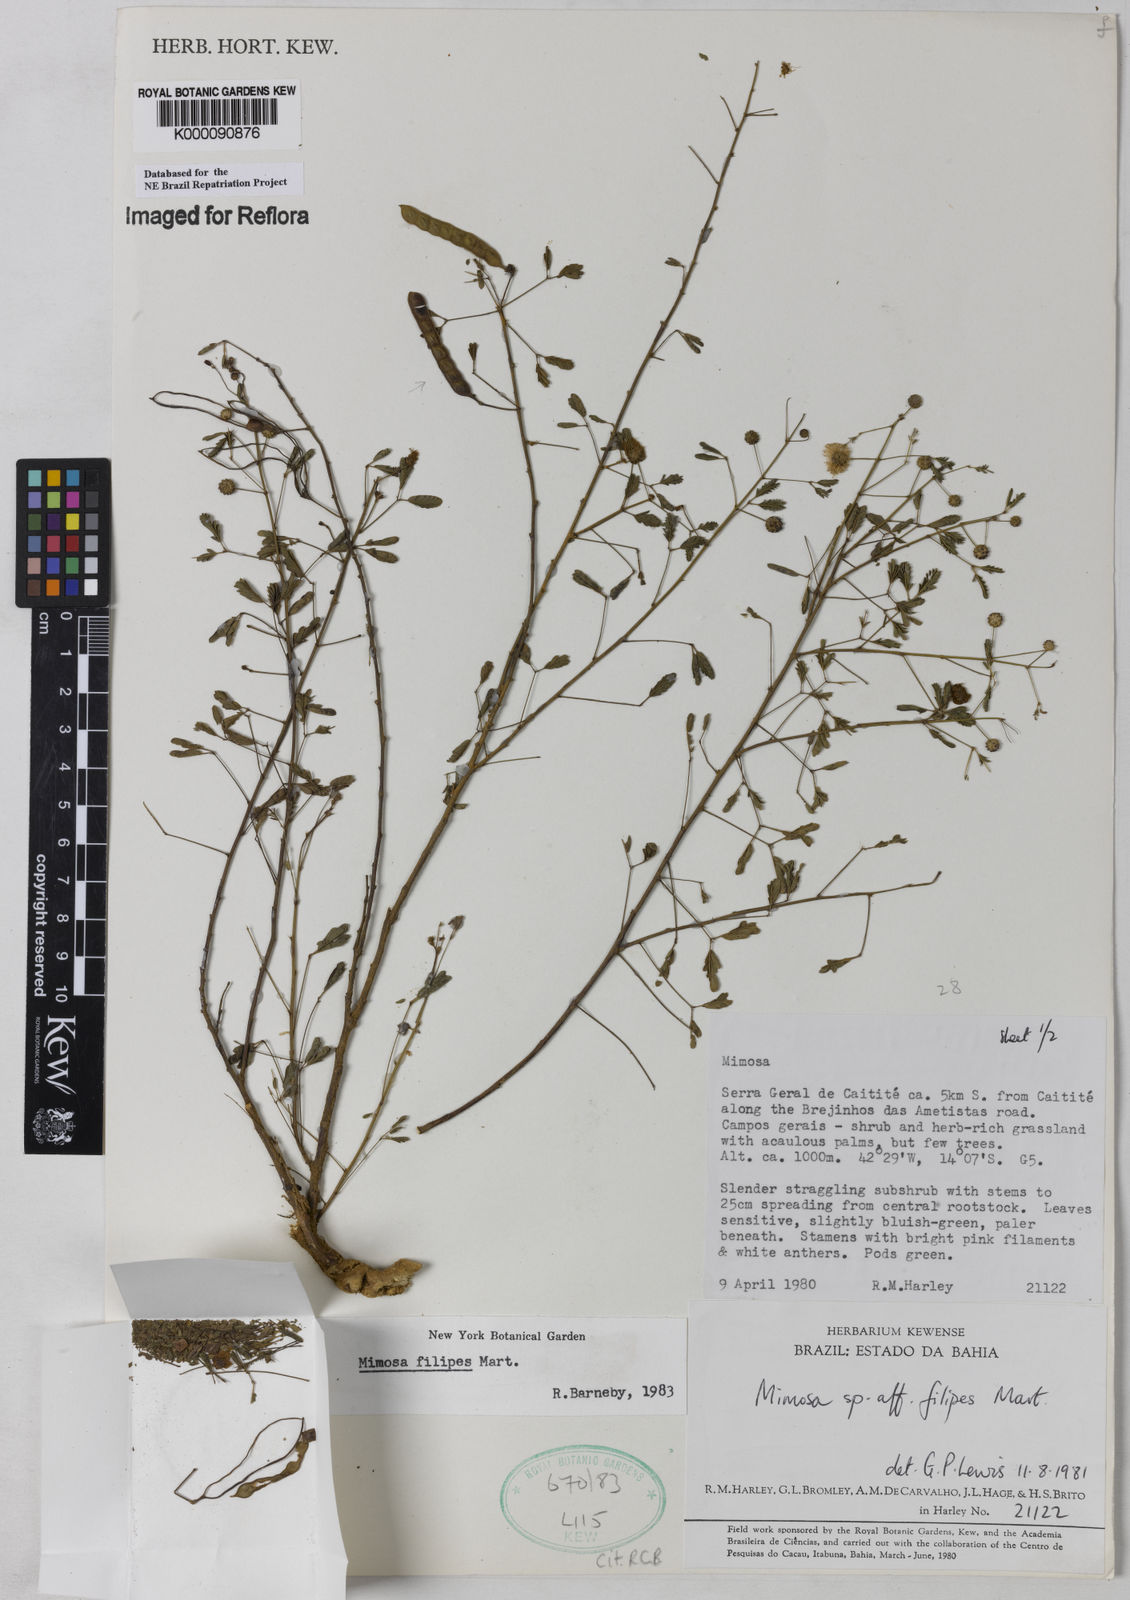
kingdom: Plantae
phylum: Tracheophyta
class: Magnoliopsida
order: Fabales
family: Fabaceae
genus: Mimosa
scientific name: Mimosa filipes
